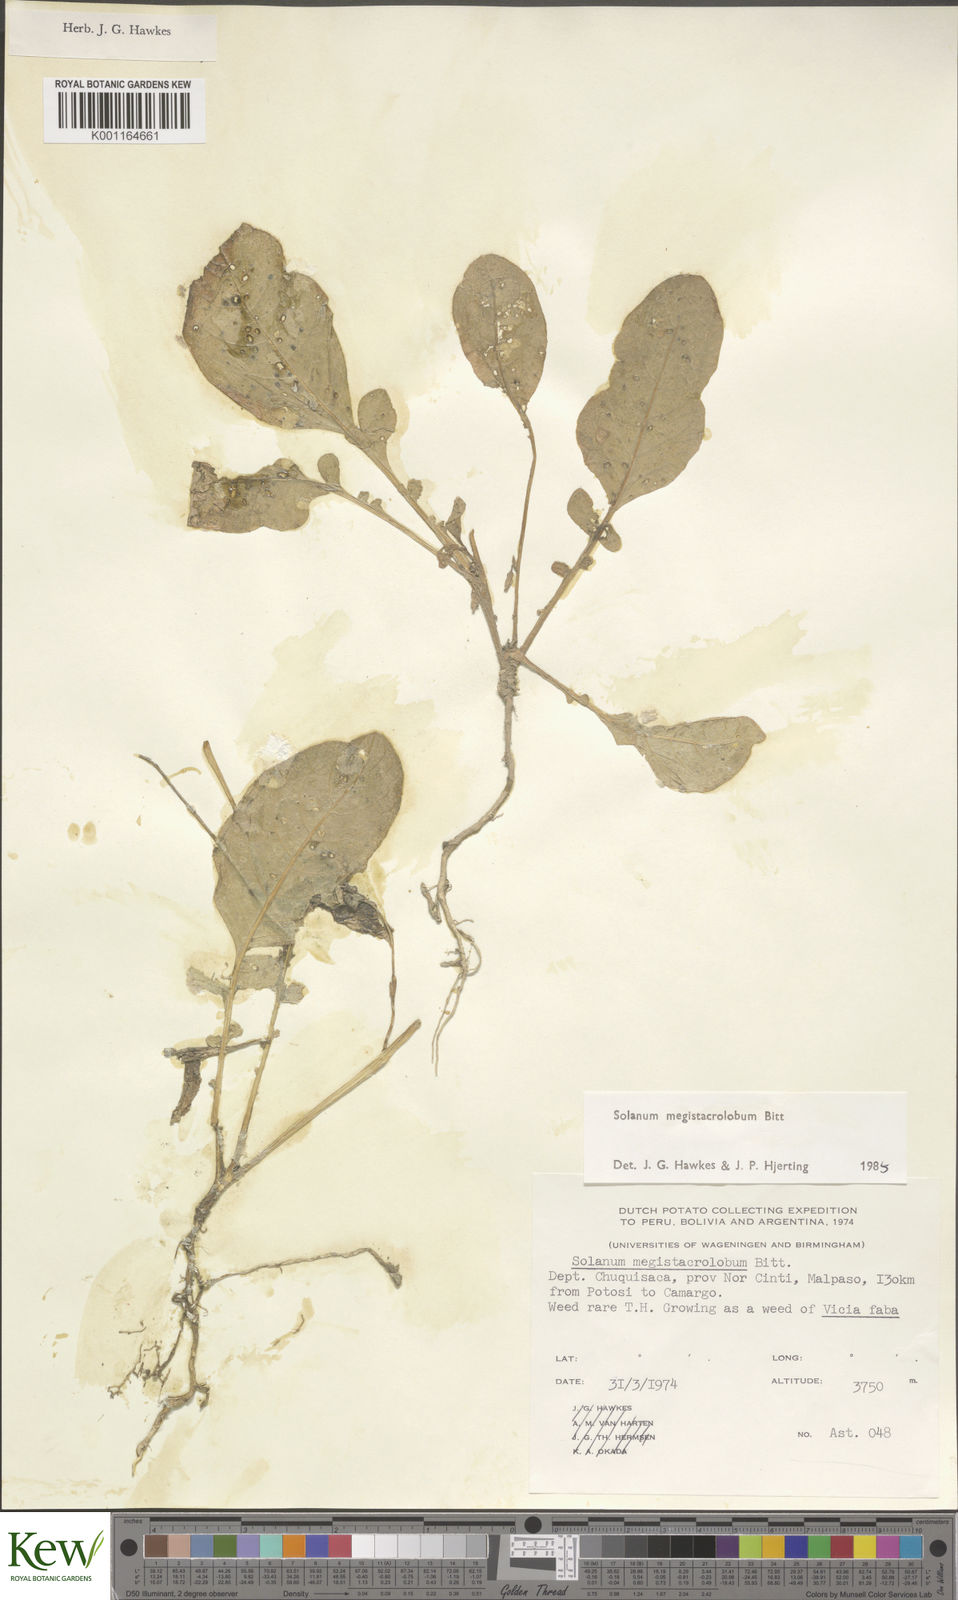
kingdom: Plantae
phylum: Tracheophyta
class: Magnoliopsida
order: Solanales
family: Solanaceae
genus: Solanum
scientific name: Solanum boliviense
